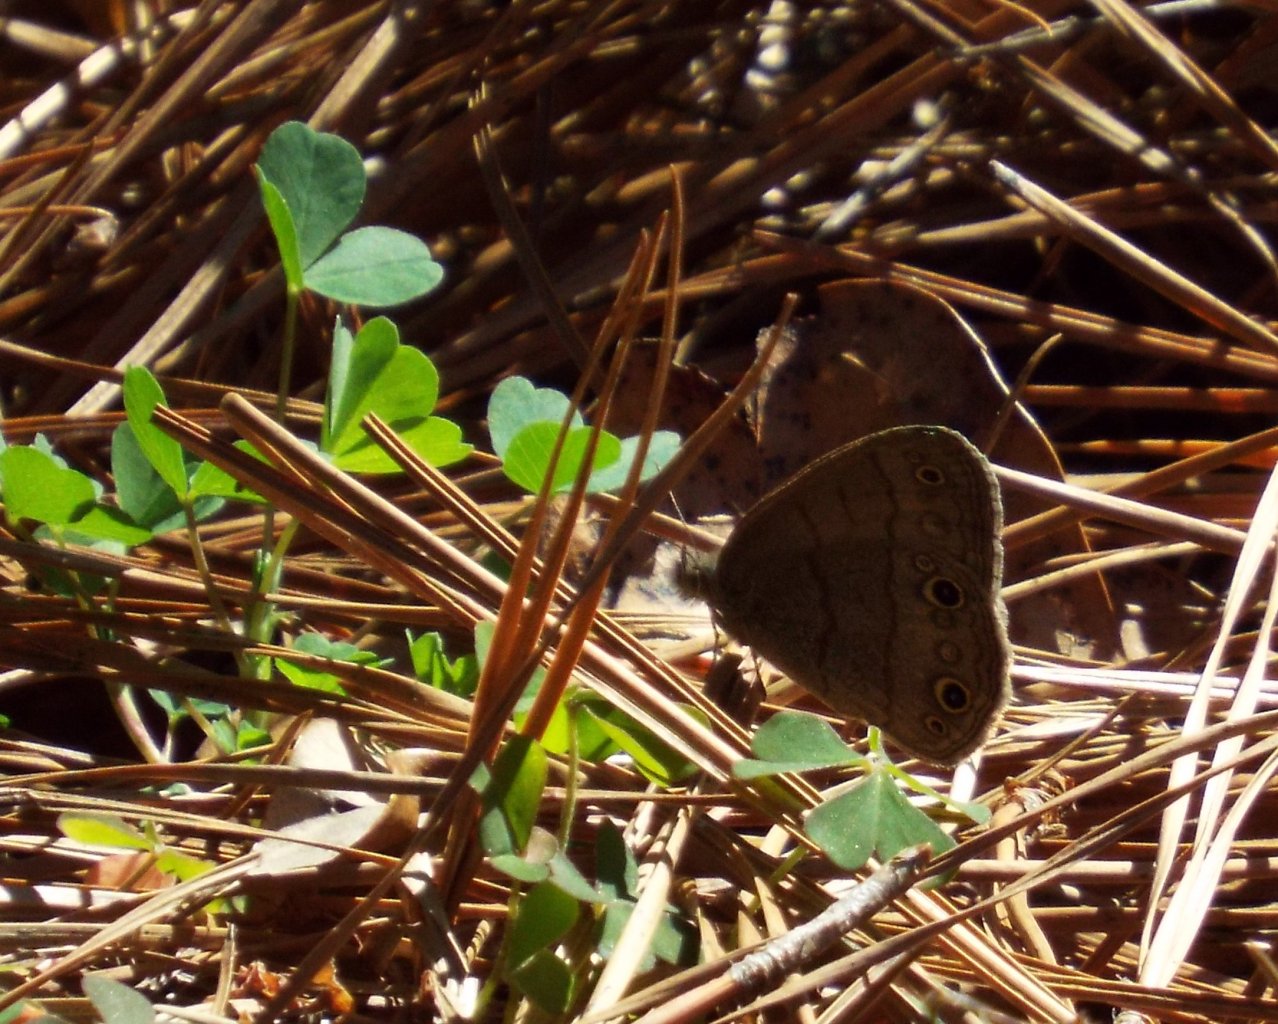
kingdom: Animalia
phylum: Arthropoda
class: Insecta
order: Lepidoptera
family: Nymphalidae
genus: Hermeuptychia
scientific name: Hermeuptychia hermes
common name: Carolina Satyr
